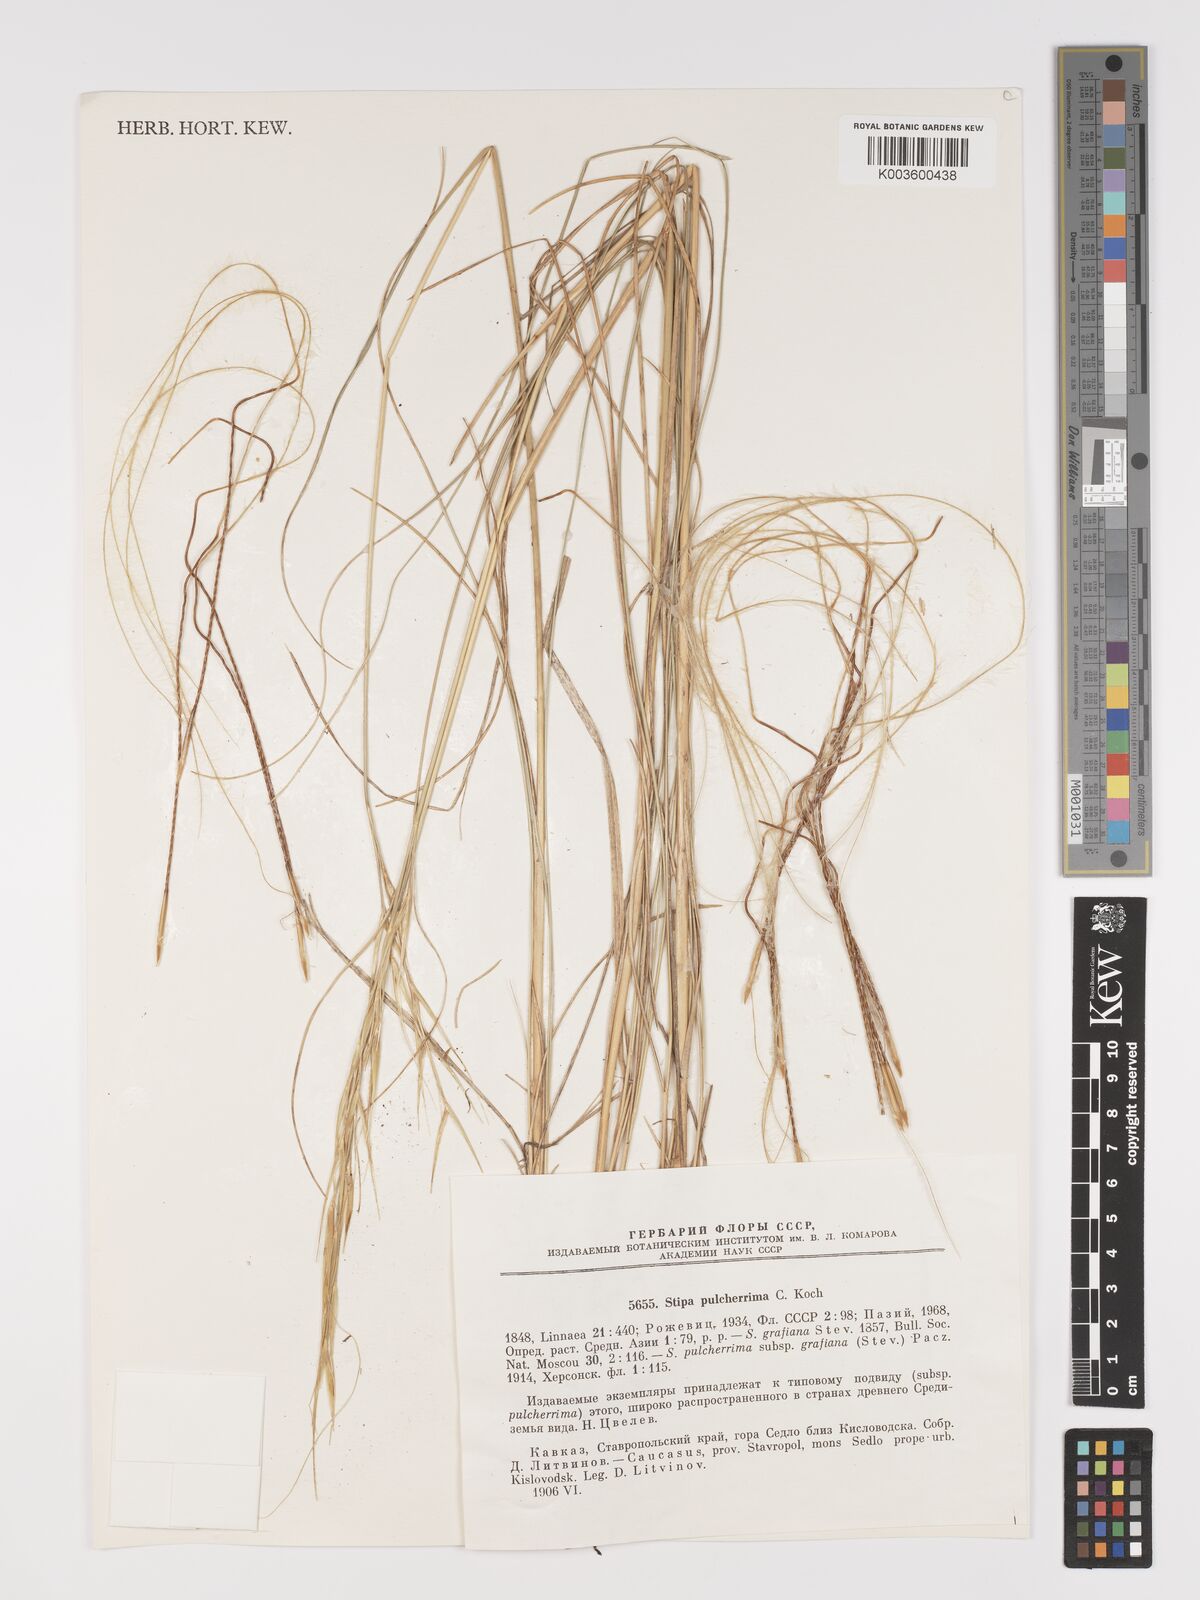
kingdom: Plantae
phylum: Tracheophyta
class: Liliopsida
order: Poales
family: Poaceae
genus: Stipa
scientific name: Stipa pulcherrima
